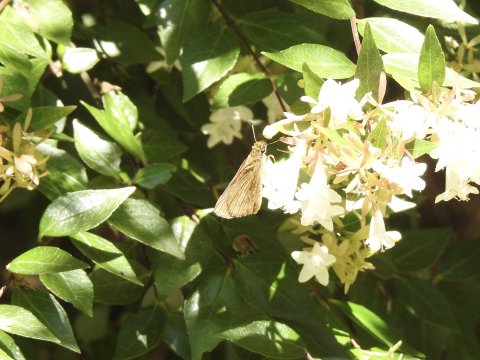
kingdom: Animalia
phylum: Arthropoda
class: Insecta
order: Lepidoptera
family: Hesperiidae
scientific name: Hesperiidae
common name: Skippers
